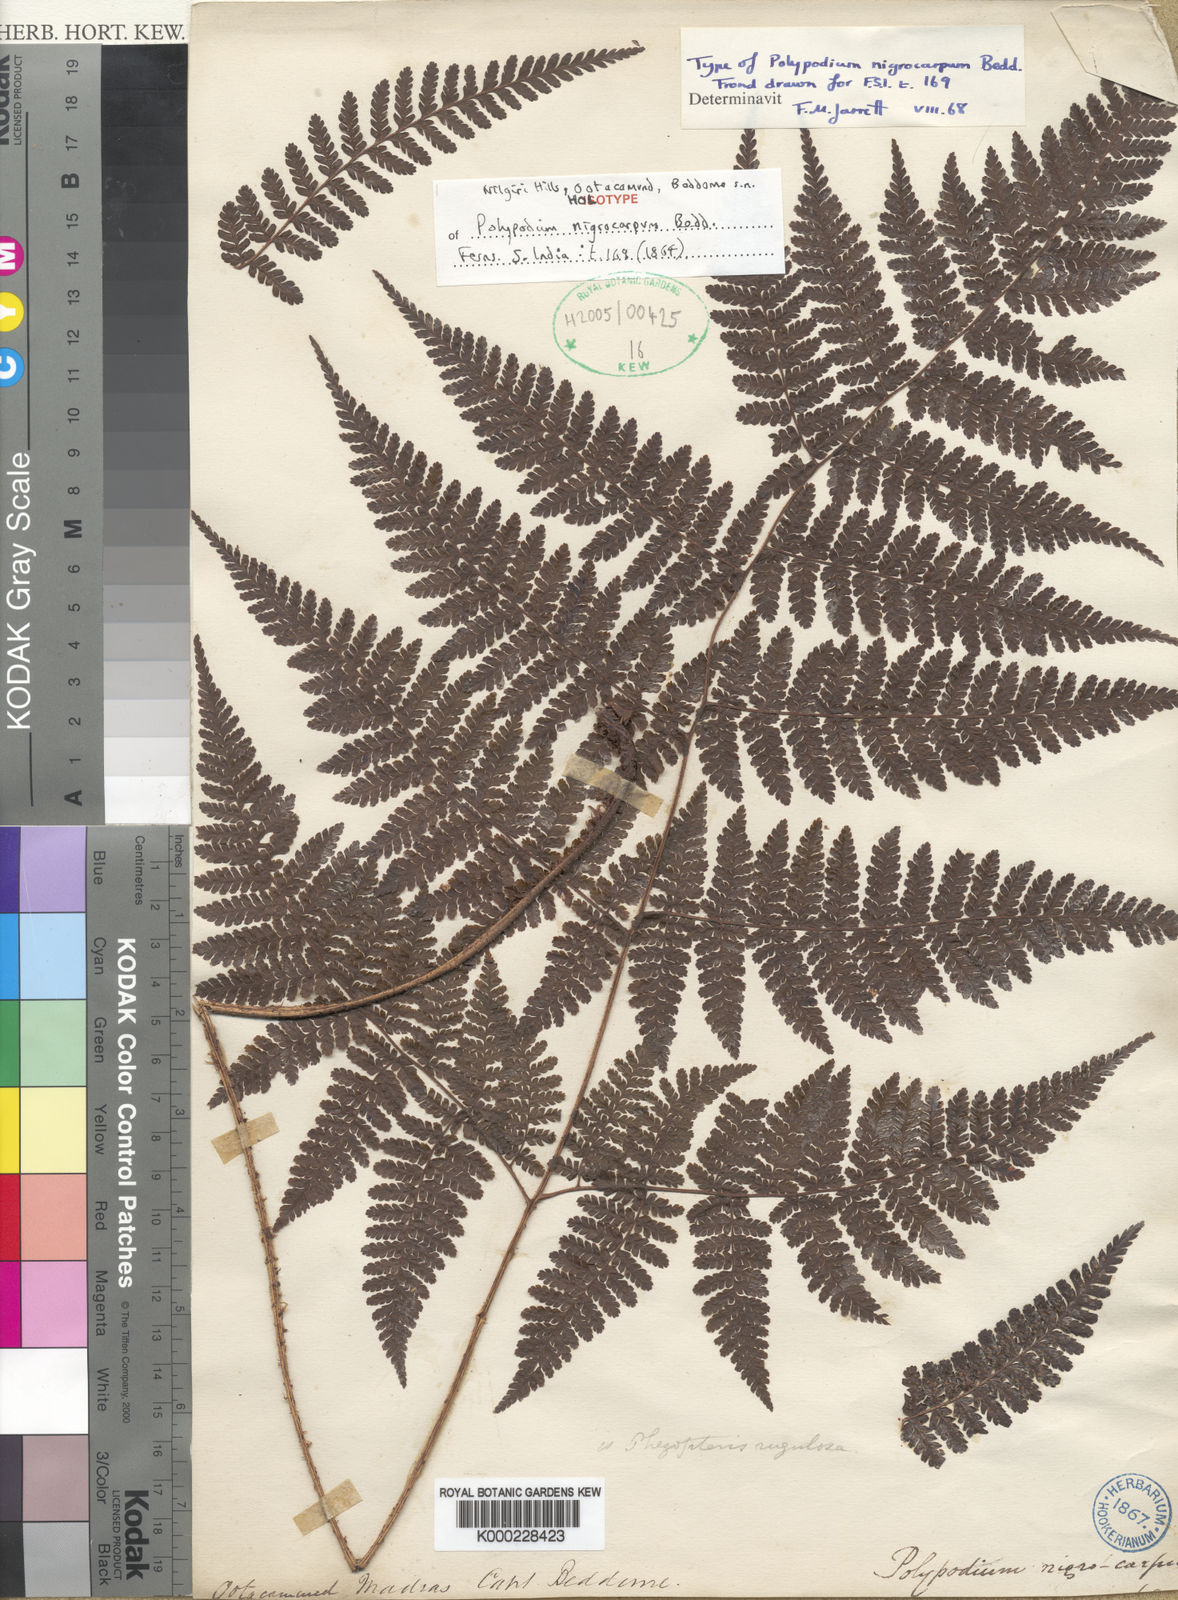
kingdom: Plantae
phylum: Tracheophyta
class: Polypodiopsida
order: Polypodiales
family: Dryopteridaceae
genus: Dryopteris
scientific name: Dryopteris scabrosa
